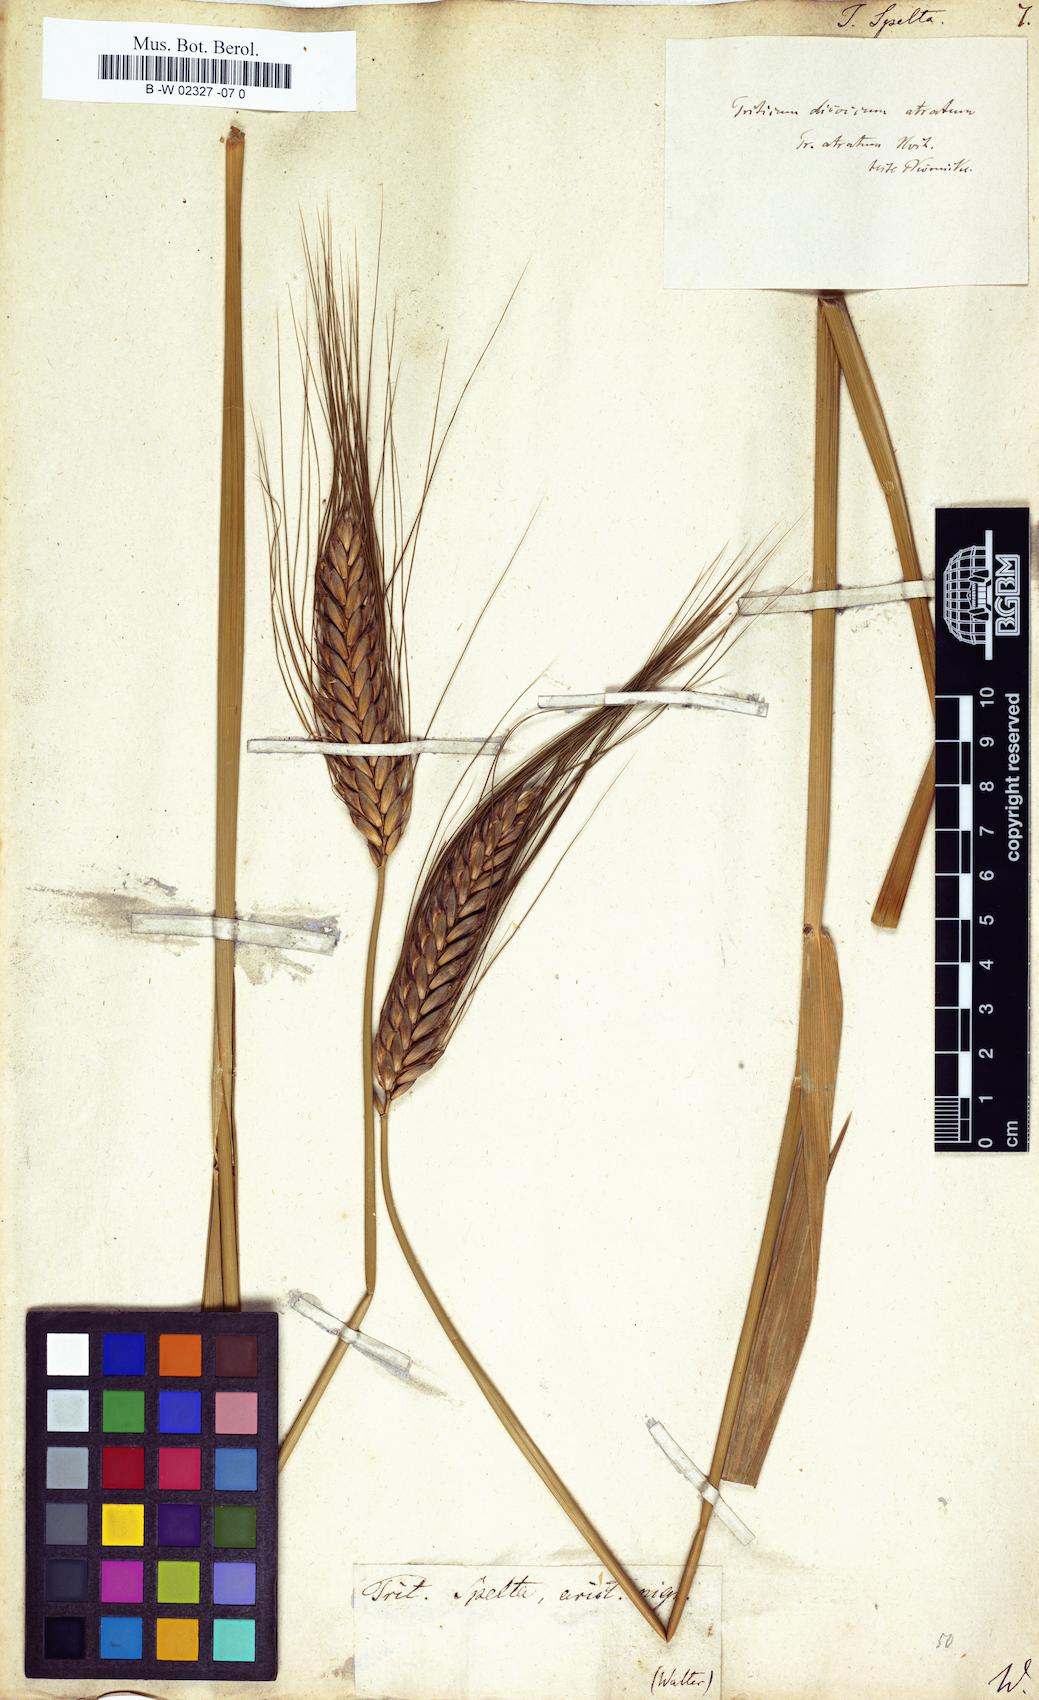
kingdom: Plantae
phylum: Tracheophyta
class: Liliopsida
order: Poales
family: Poaceae
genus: Triticum
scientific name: Triticum turgidum
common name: Rivet wheat
